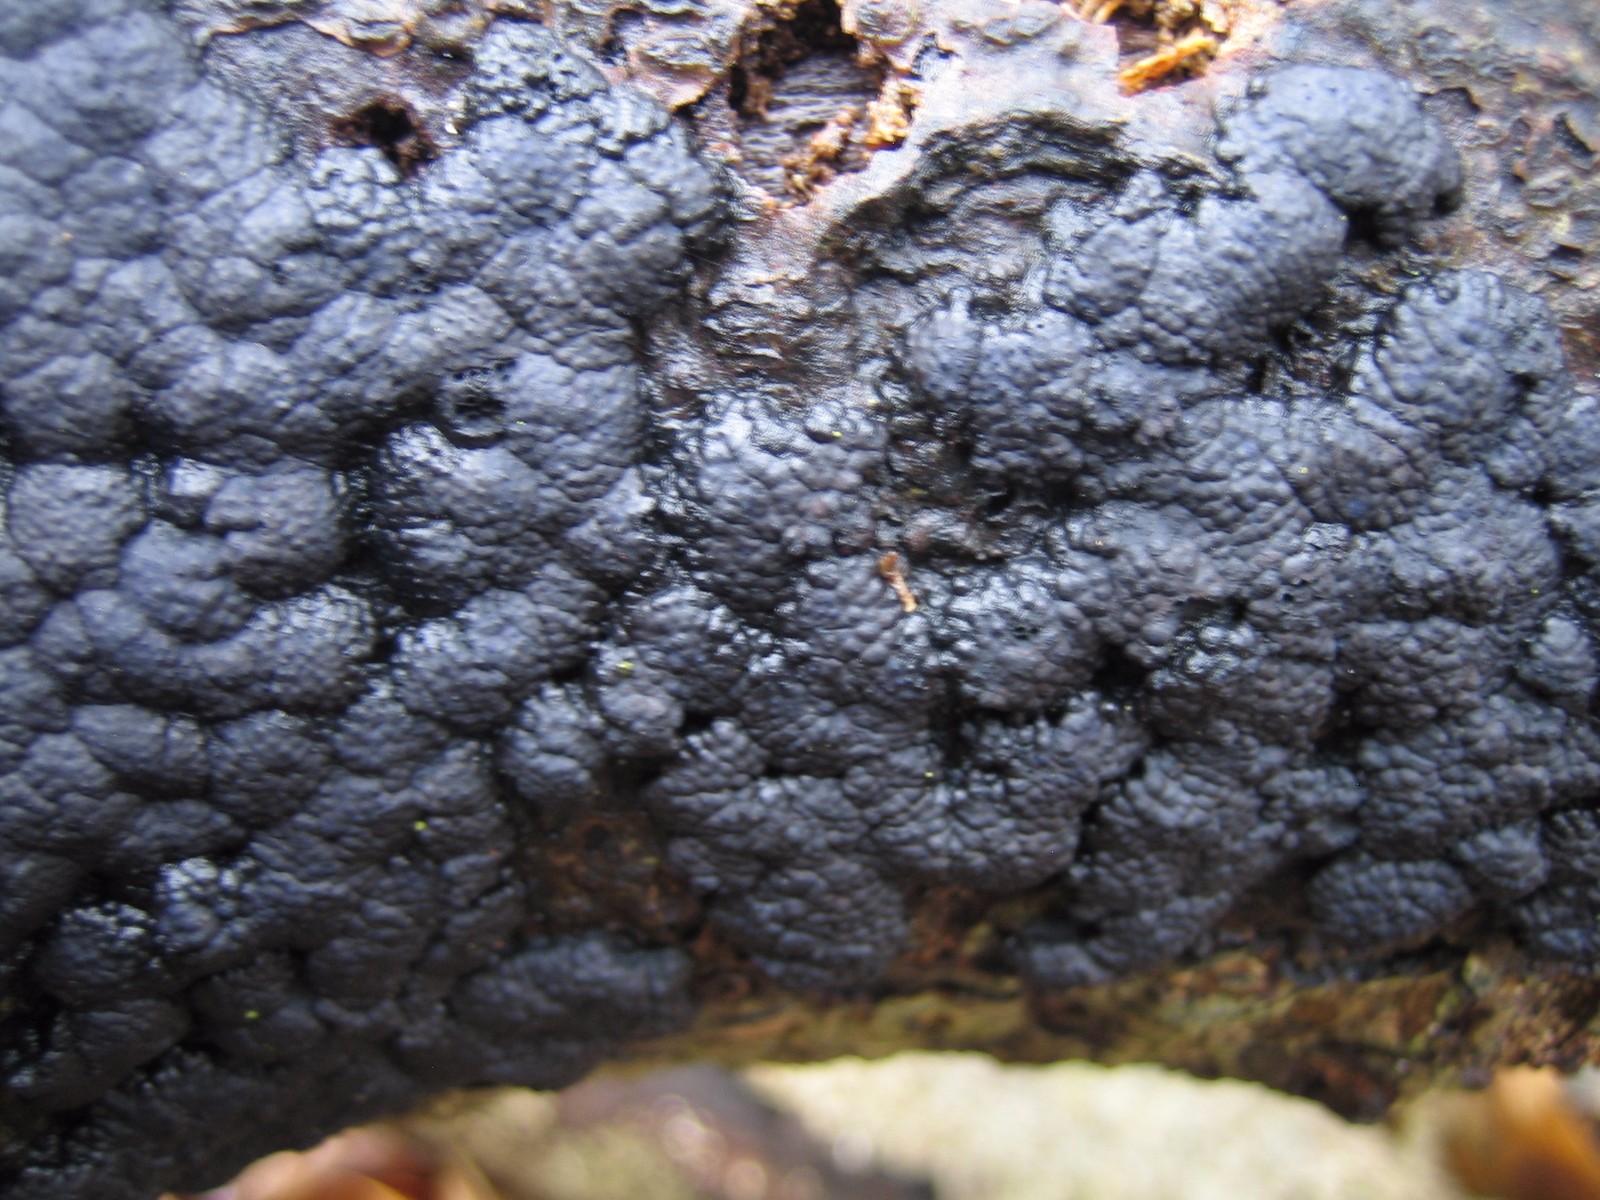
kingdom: Fungi
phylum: Ascomycota
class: Sordariomycetes
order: Xylariales
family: Hypoxylaceae
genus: Jackrogersella
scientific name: Jackrogersella cohaerens
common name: sammenflydende kulbær
